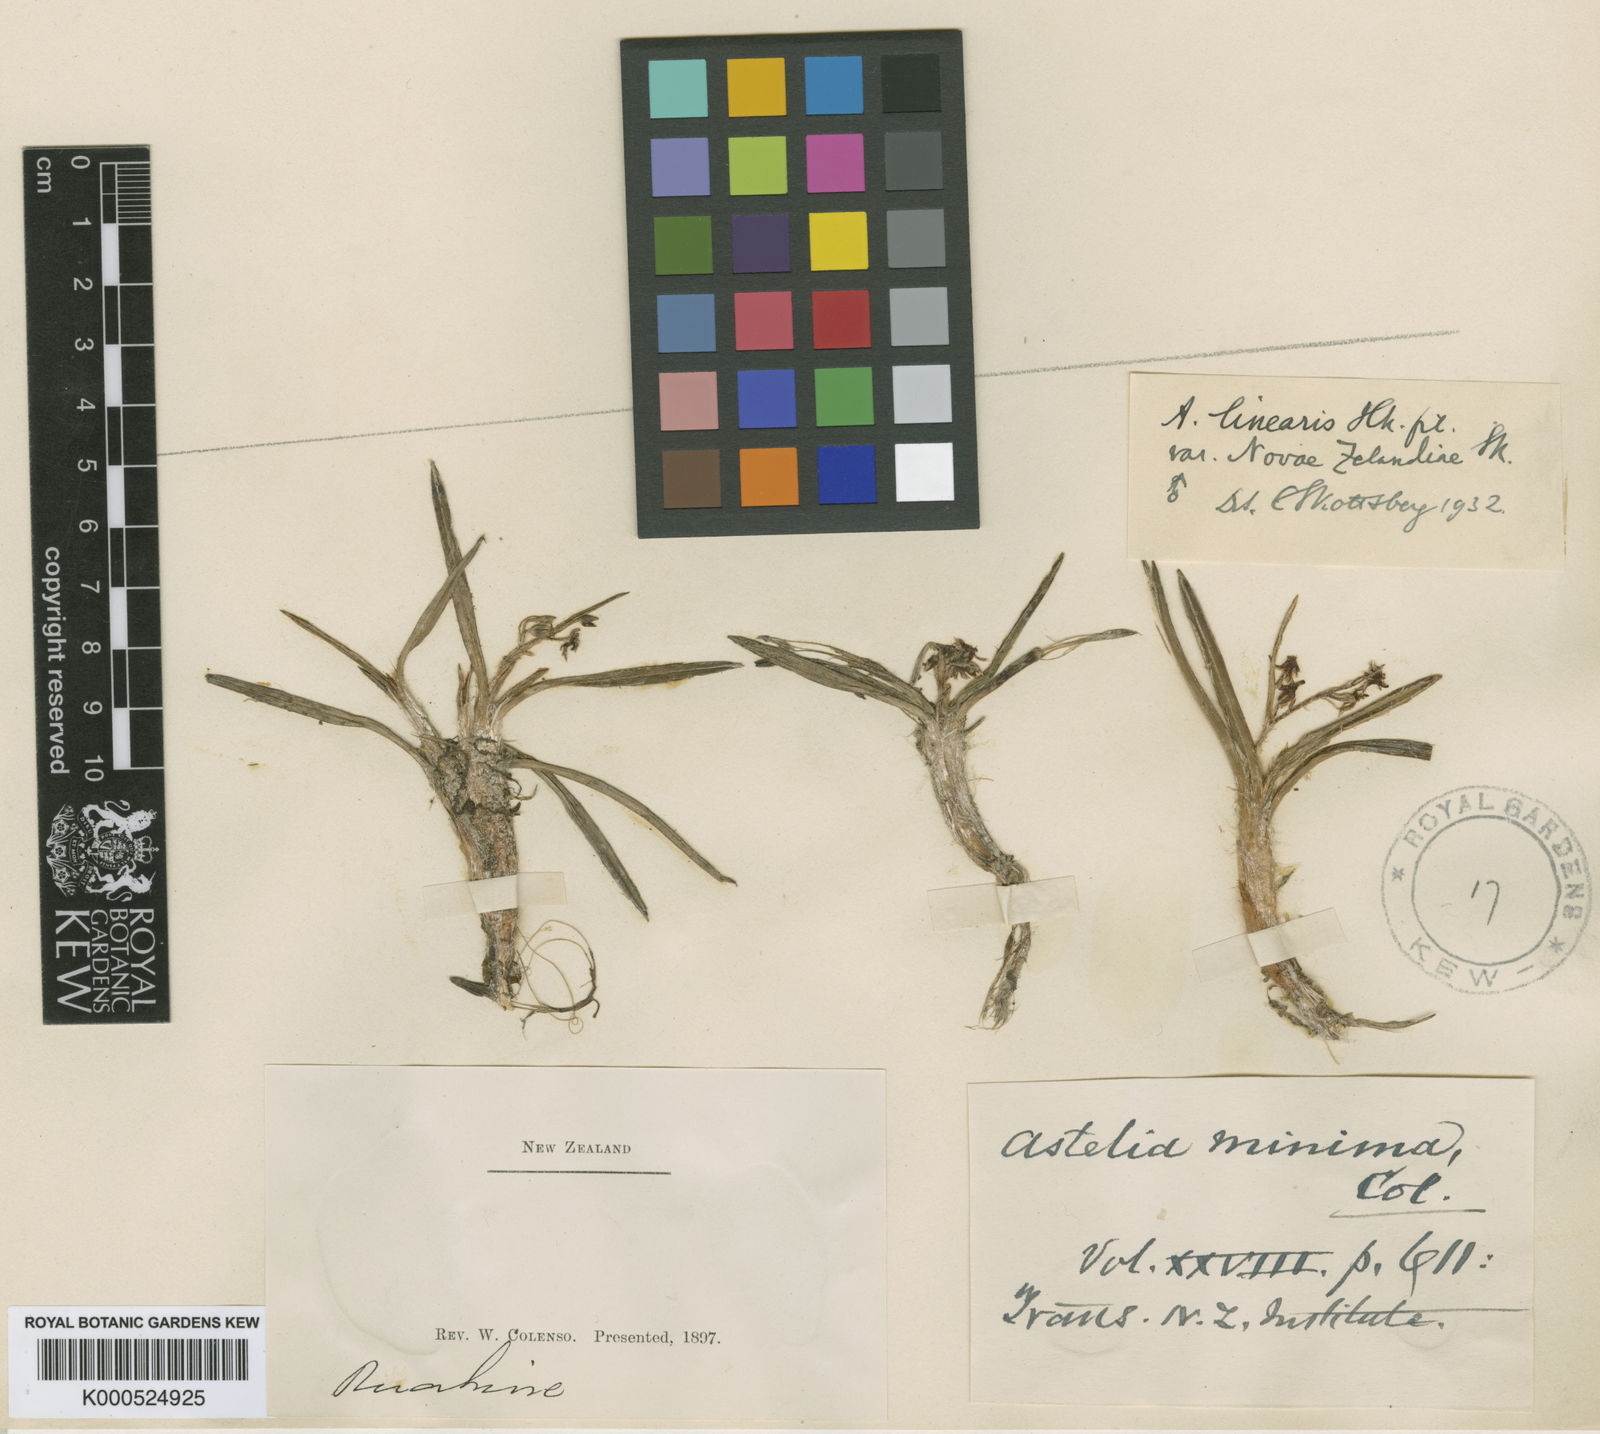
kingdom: Plantae
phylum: Tracheophyta
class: Liliopsida
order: Asparagales
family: Asteliaceae
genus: Astelia
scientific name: Astelia linearis
